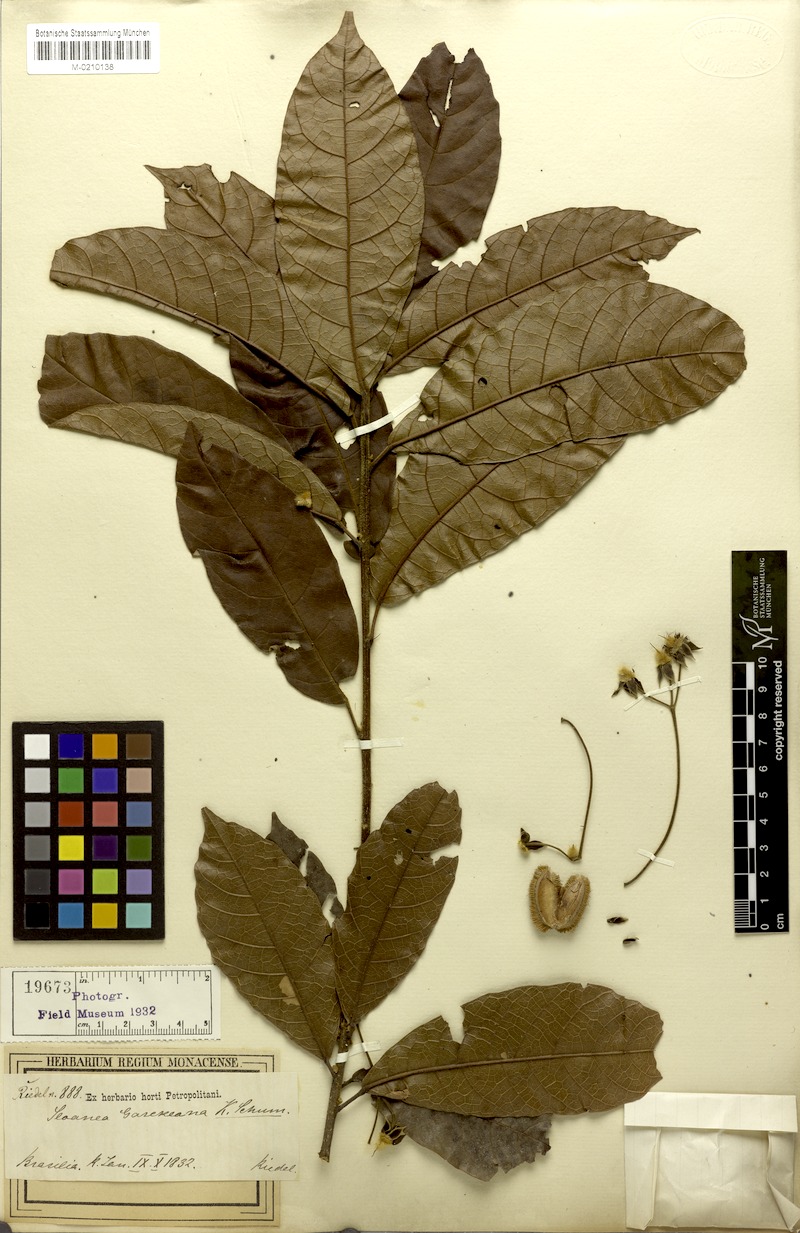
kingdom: Plantae
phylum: Tracheophyta
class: Magnoliopsida
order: Oxalidales
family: Elaeocarpaceae
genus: Sloanea
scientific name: Sloanea garckeana
